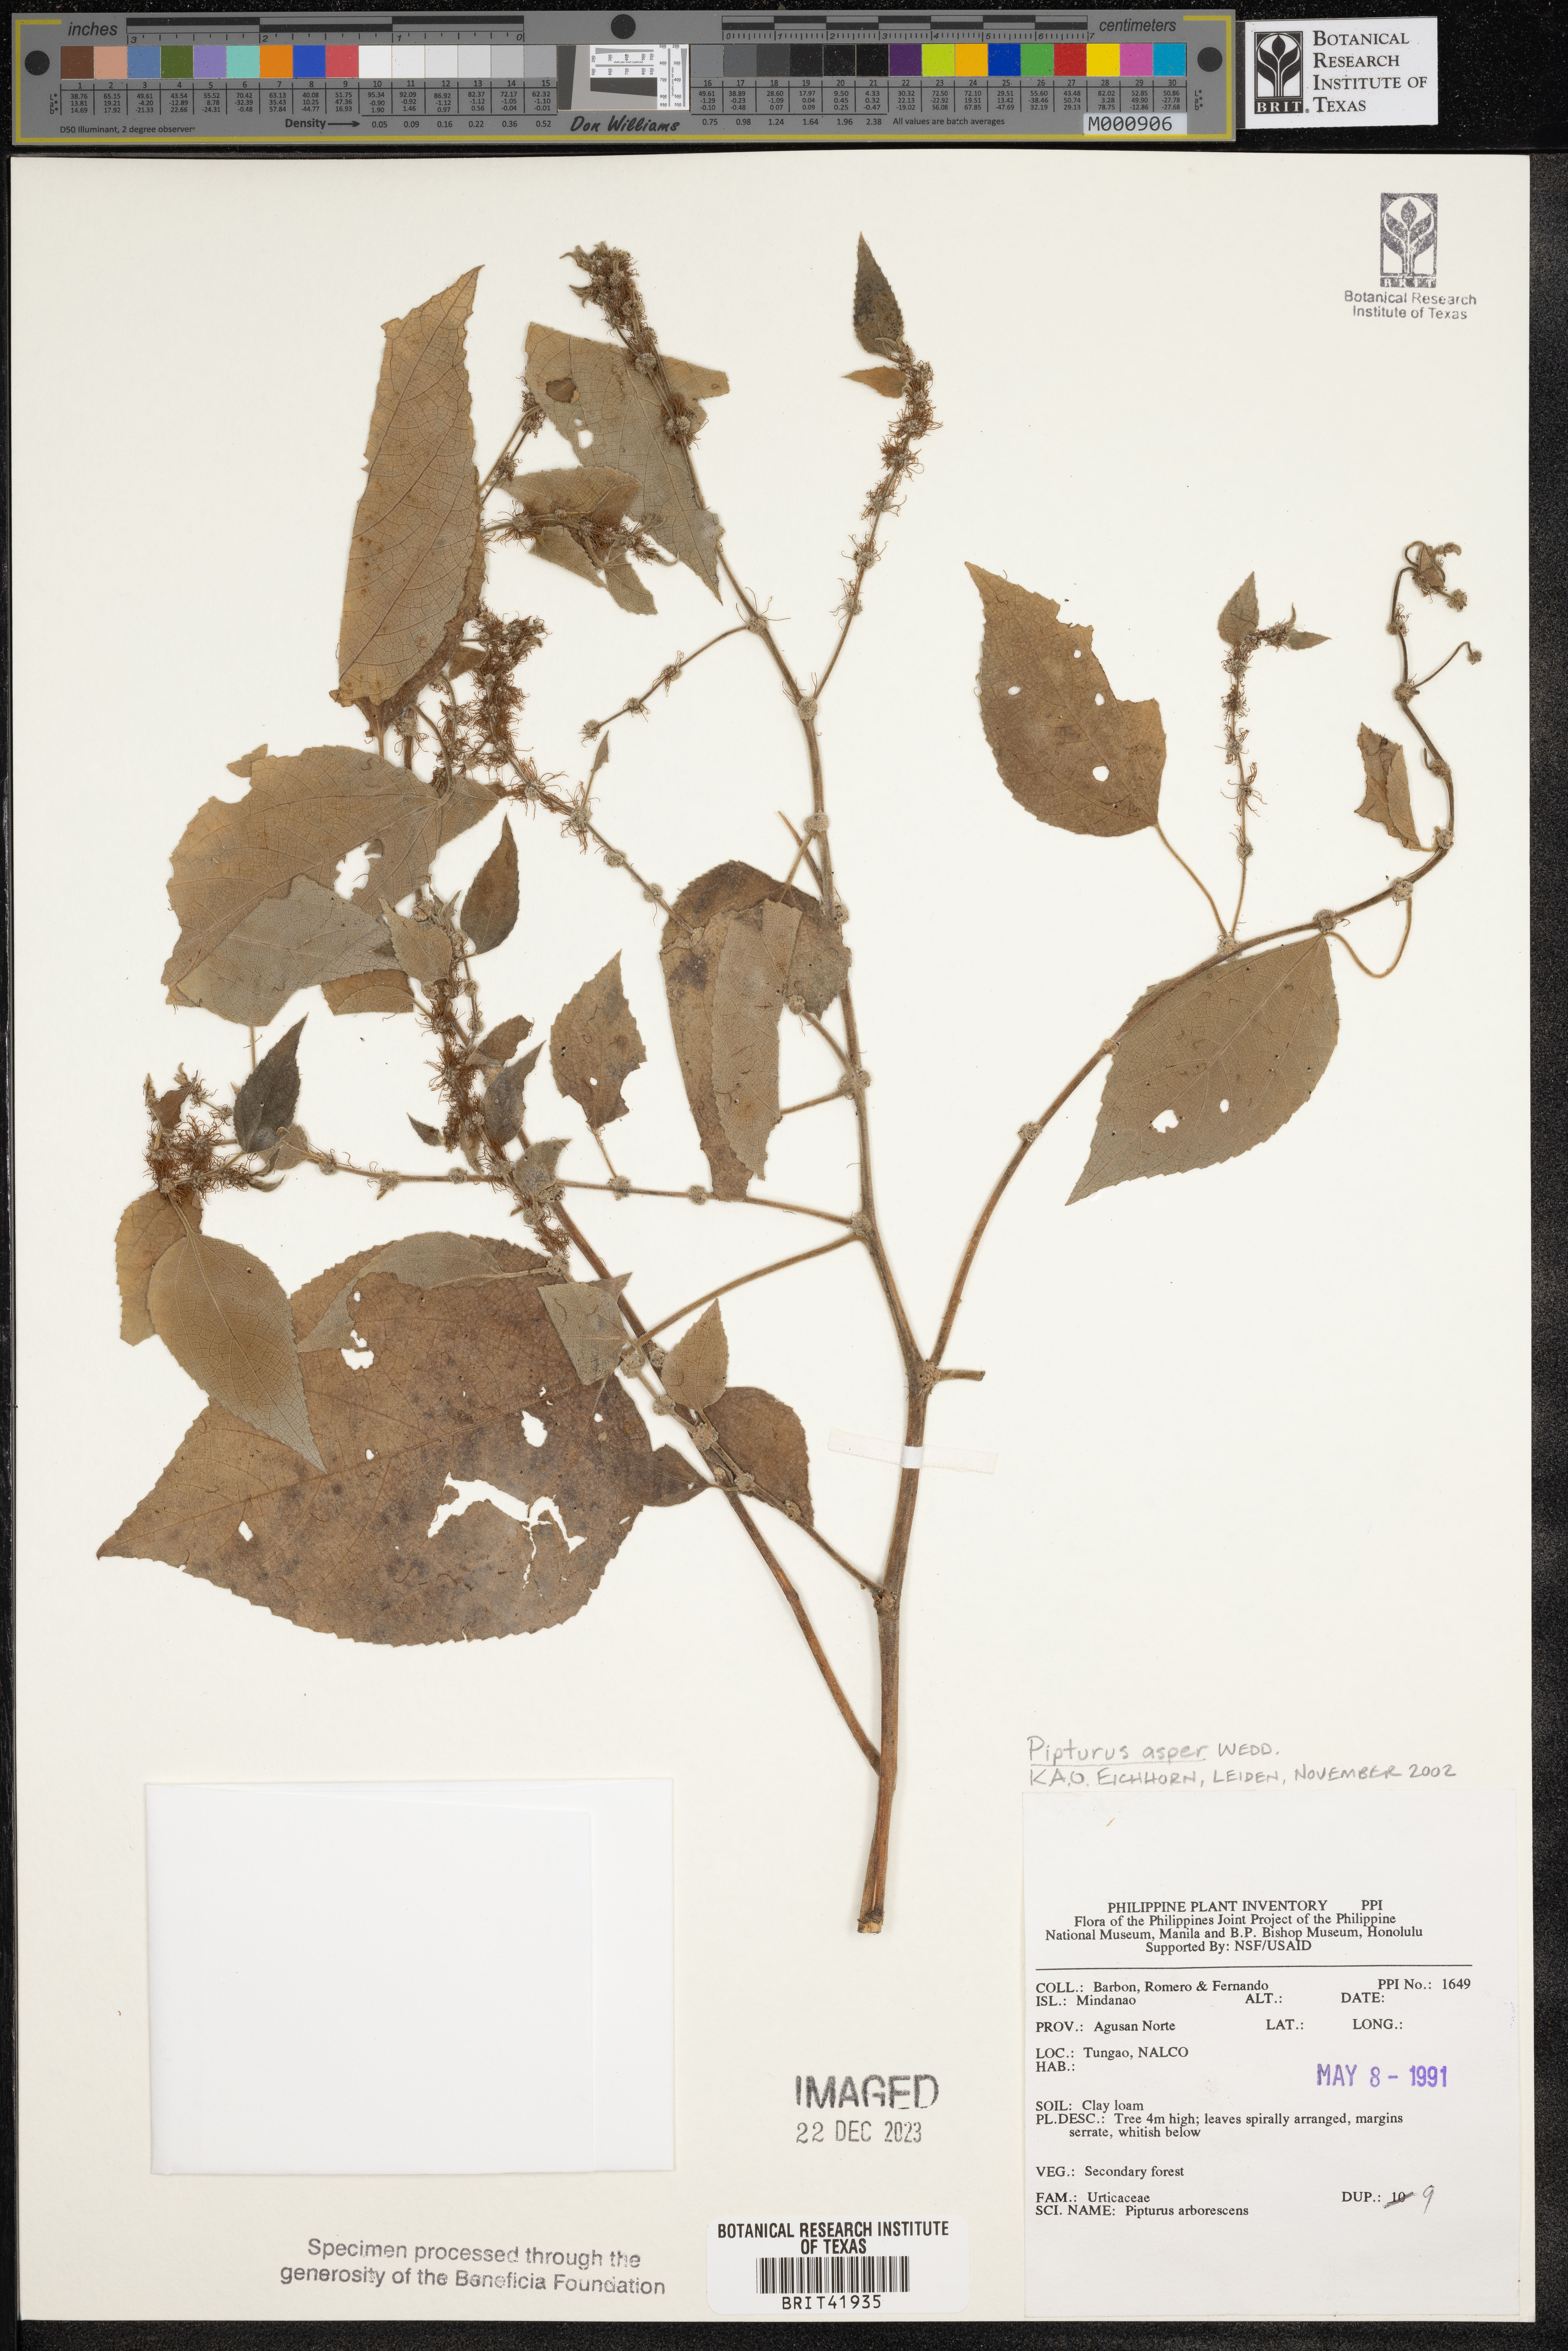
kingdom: Plantae
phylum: Tracheophyta
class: Magnoliopsida
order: Rosales
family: Urticaceae
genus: Pipturus
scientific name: Pipturus arborescens
